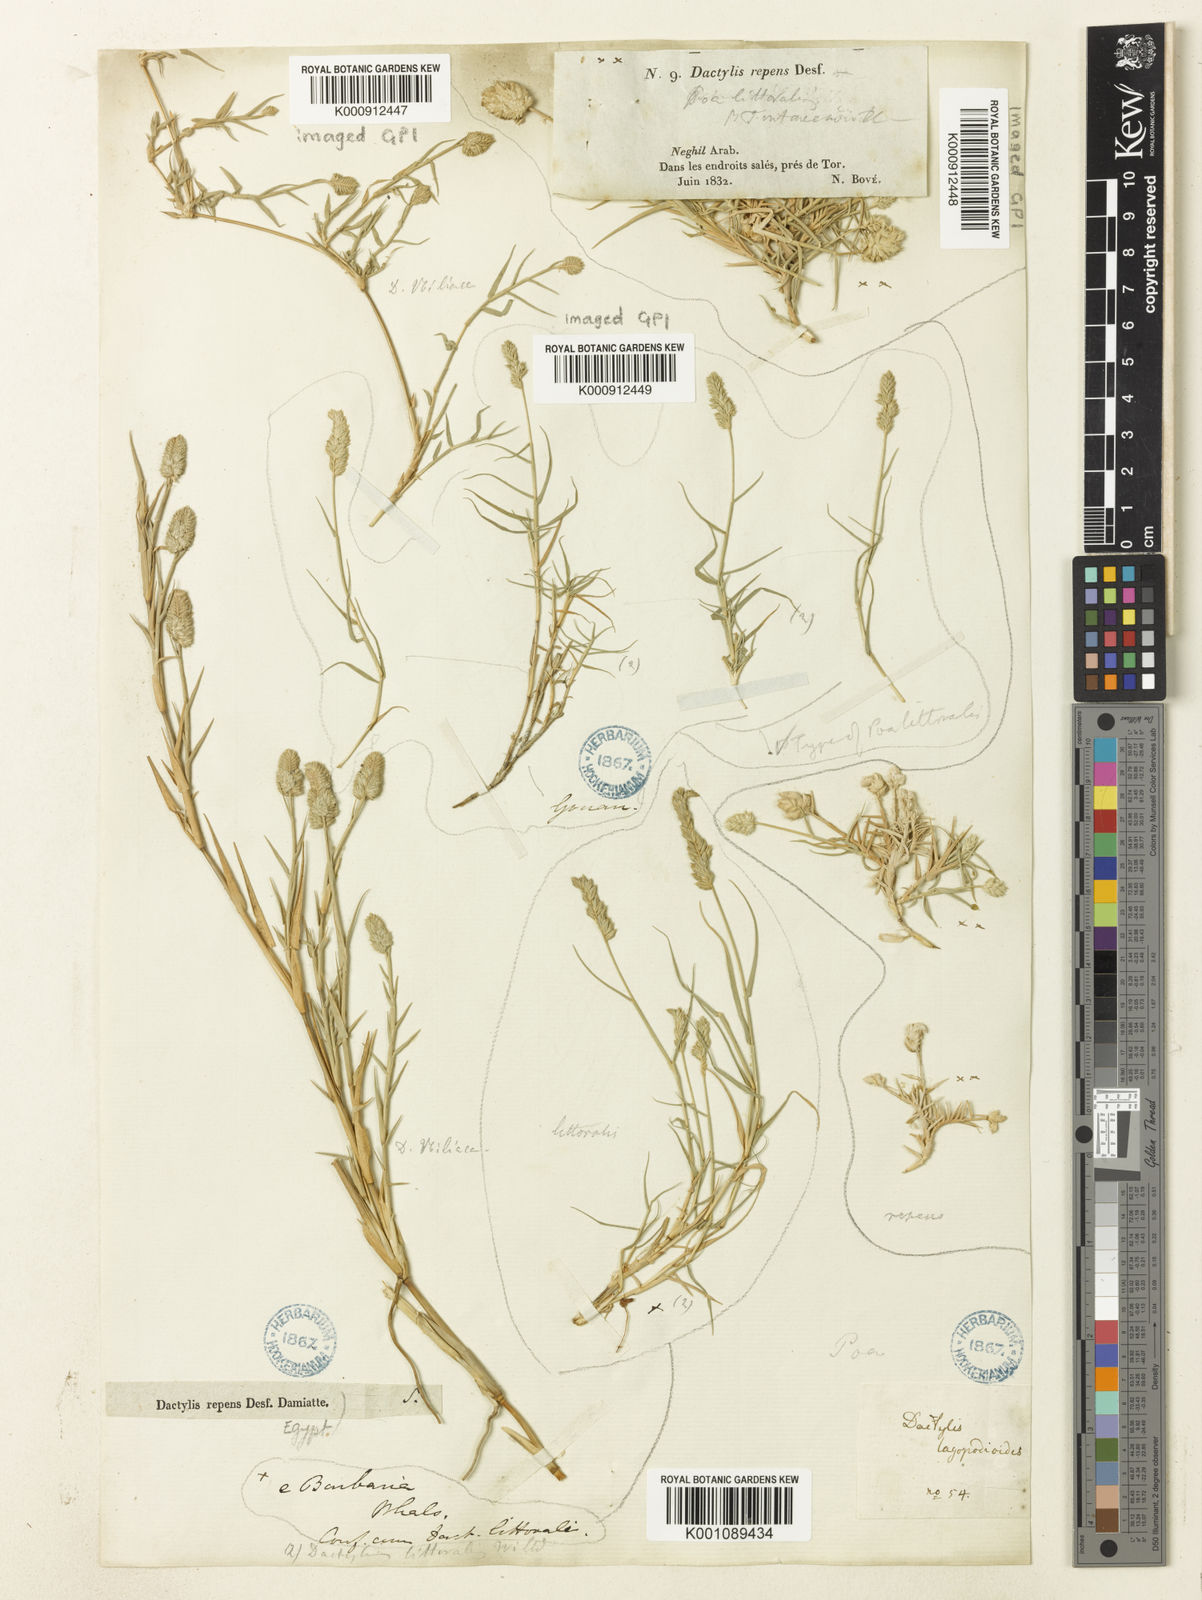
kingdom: Plantae
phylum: Tracheophyta
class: Liliopsida
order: Poales
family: Poaceae
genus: Aeluropus
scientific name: Aeluropus littoralis
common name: Indian walnut
